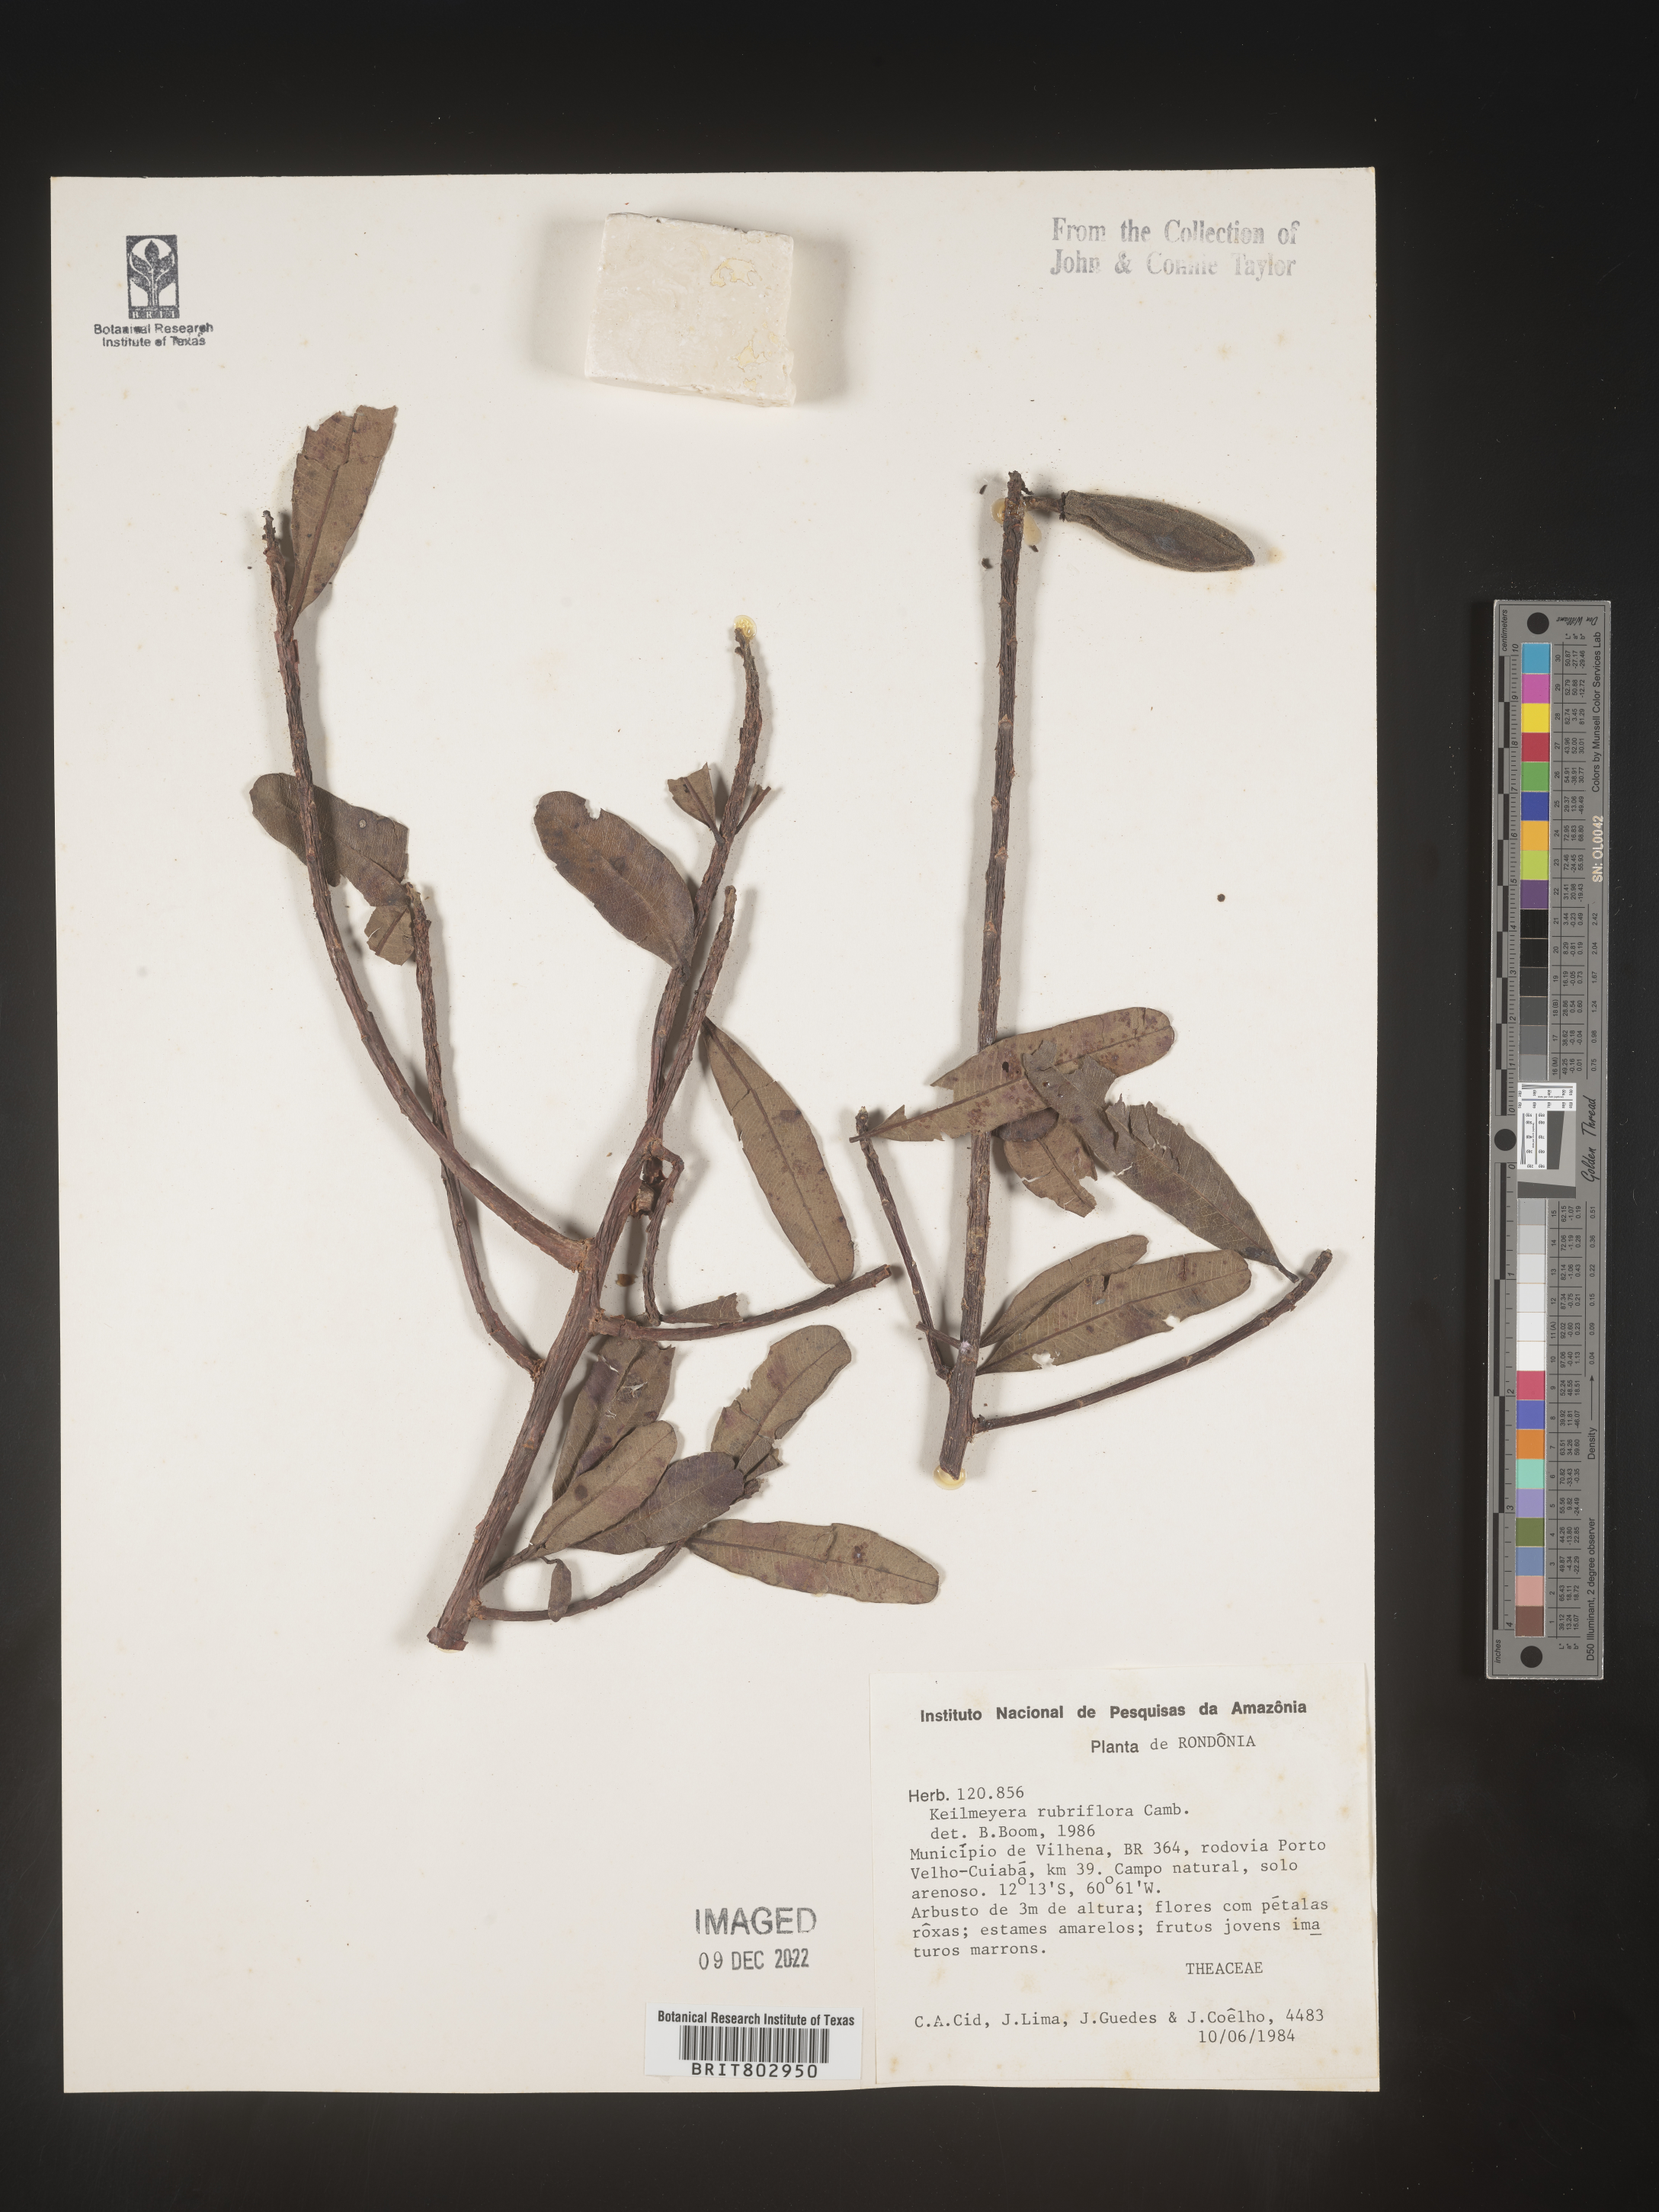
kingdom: Plantae
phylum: Tracheophyta
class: Magnoliopsida
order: Malpighiales
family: Calophyllaceae
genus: Kielmeyera
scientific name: Kielmeyera
